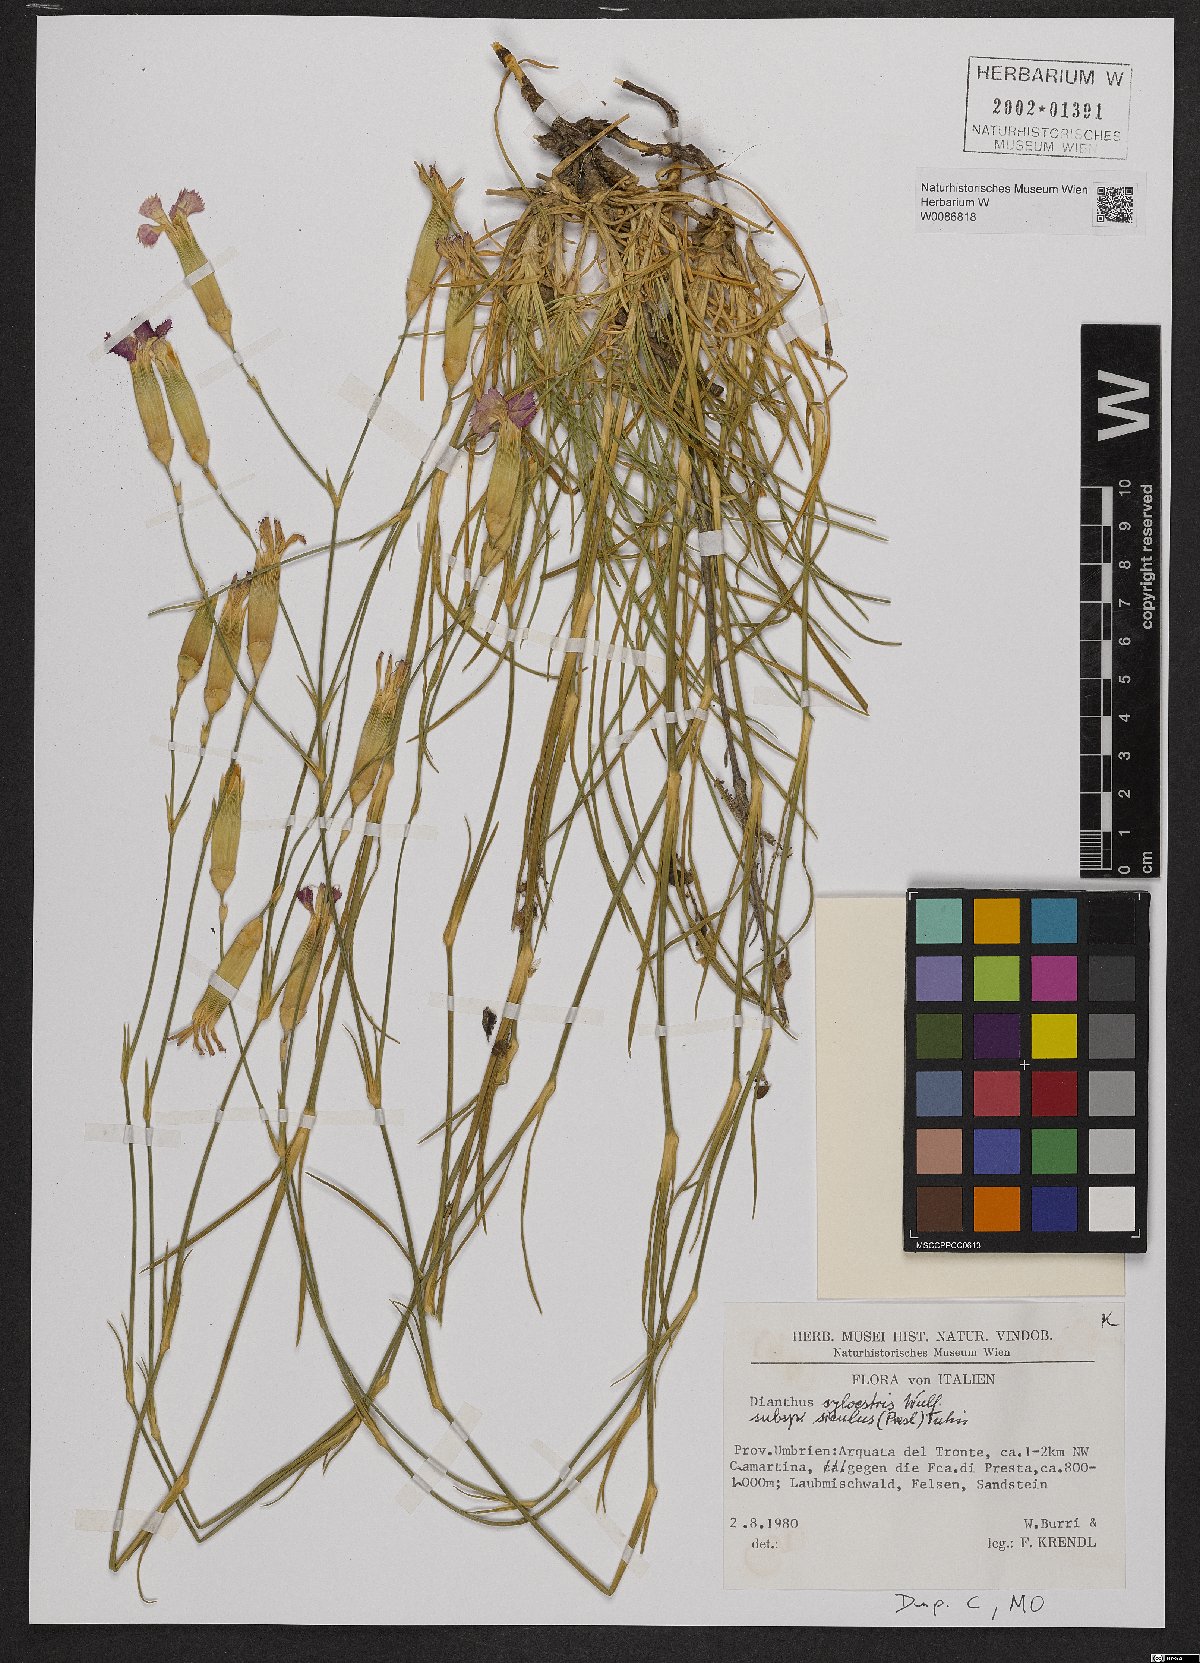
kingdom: Plantae
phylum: Tracheophyta
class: Magnoliopsida
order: Caryophyllales
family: Caryophyllaceae
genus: Dianthus
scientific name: Dianthus siculus
